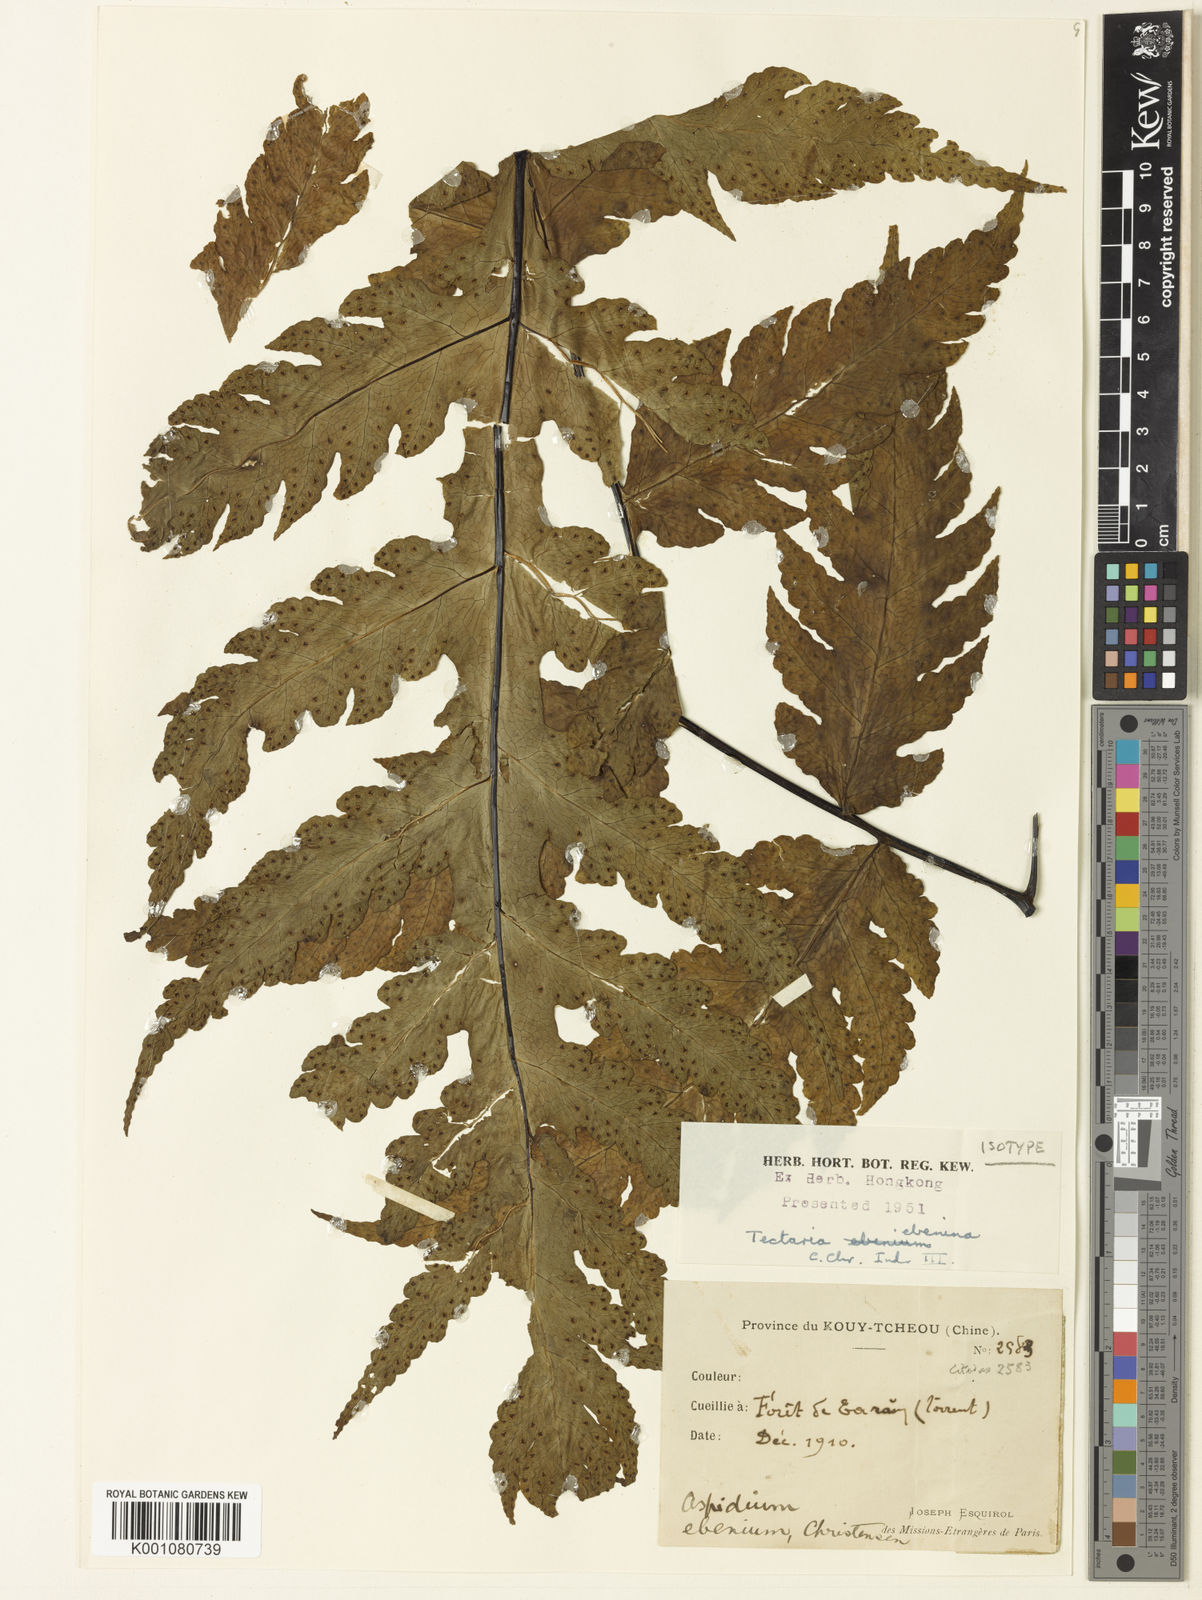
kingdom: Plantae
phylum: Tracheophyta
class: Polypodiopsida
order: Polypodiales
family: Tectariaceae
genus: Tectaria
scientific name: Tectaria ebenina
